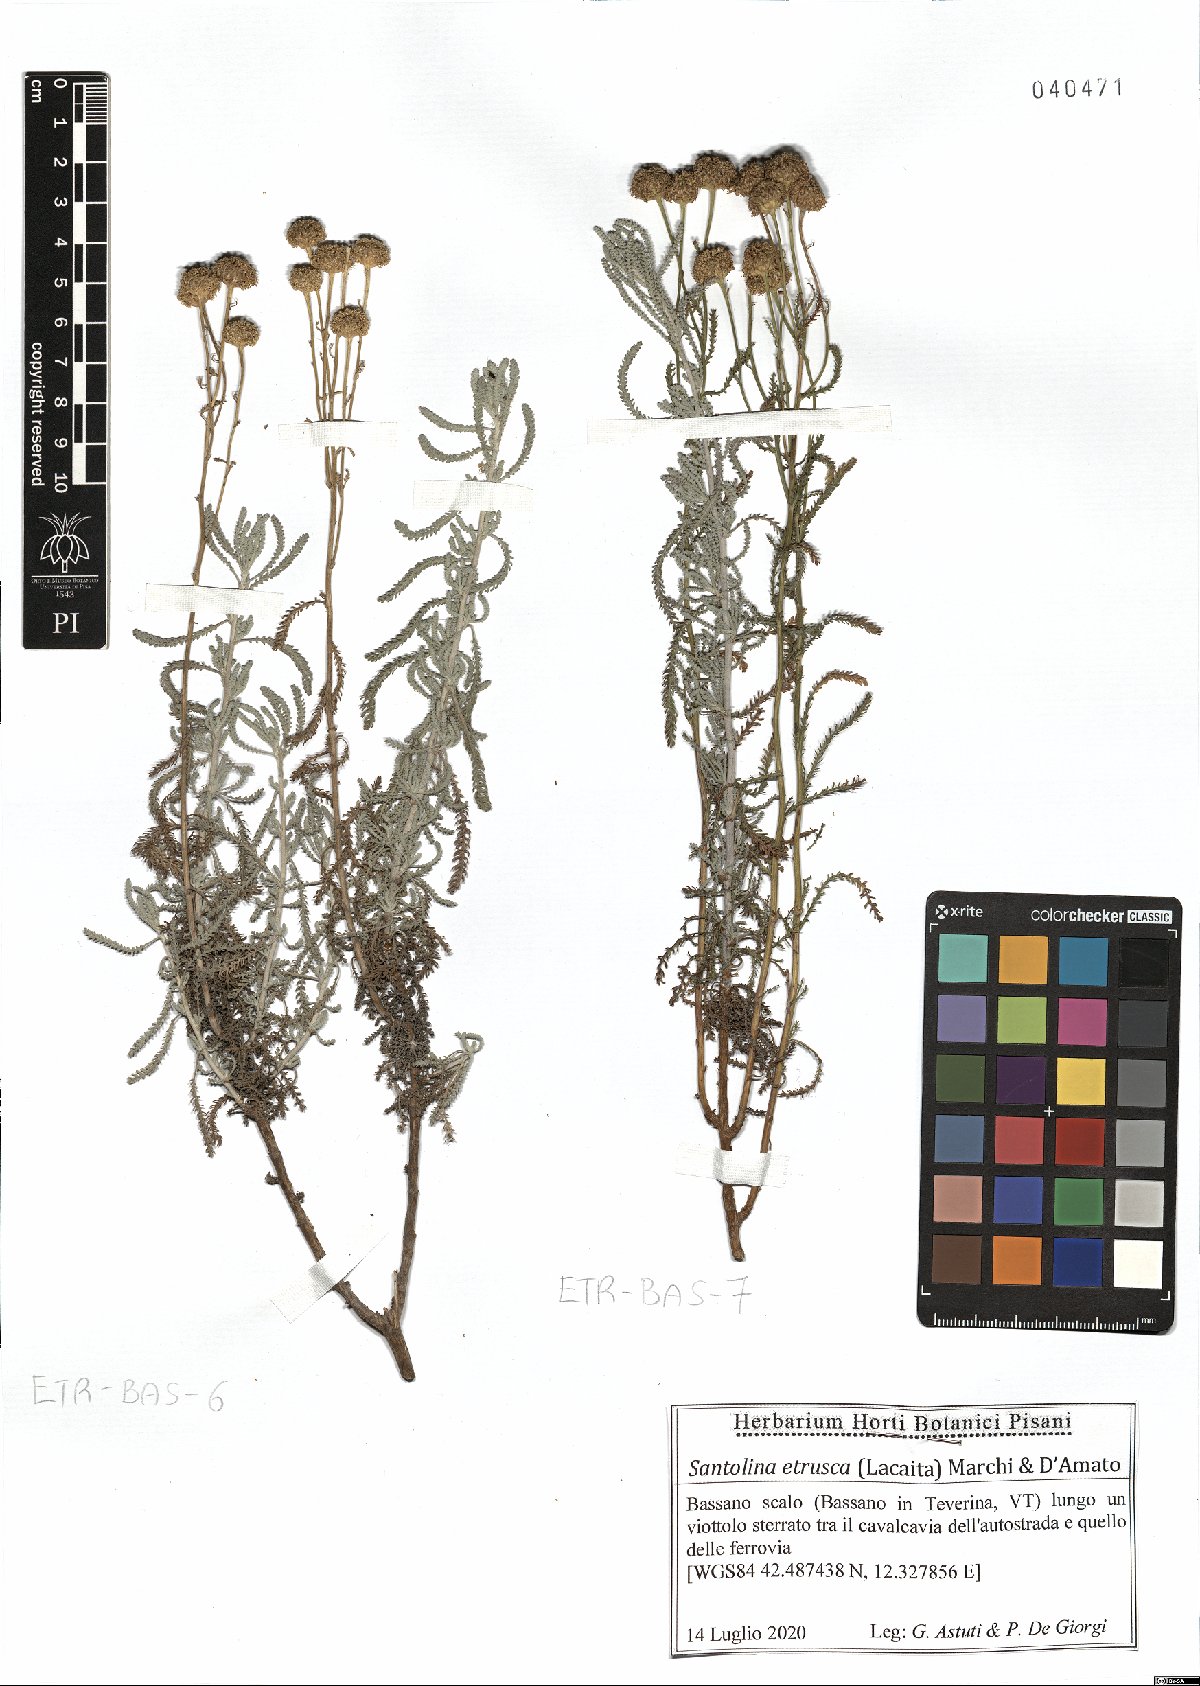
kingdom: Plantae
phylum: Tracheophyta
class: Magnoliopsida
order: Asterales
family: Asteraceae
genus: Santolina
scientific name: Santolina etrusca
